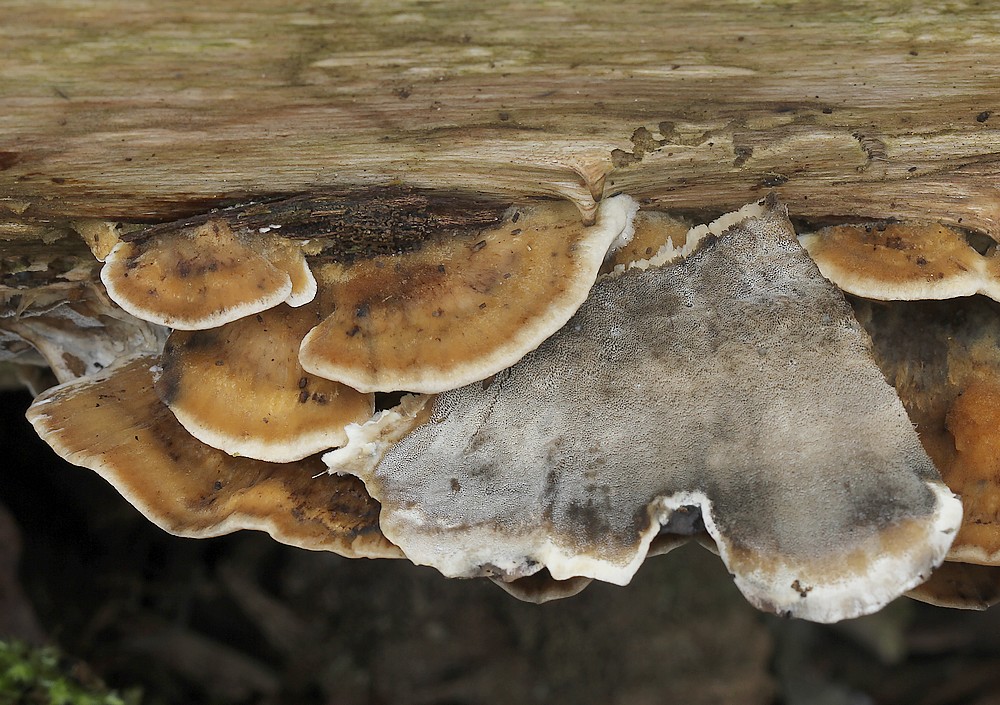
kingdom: Fungi
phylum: Basidiomycota
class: Agaricomycetes
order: Polyporales
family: Phanerochaetaceae
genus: Bjerkandera
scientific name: Bjerkandera adusta
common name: sveden sodporesvamp
